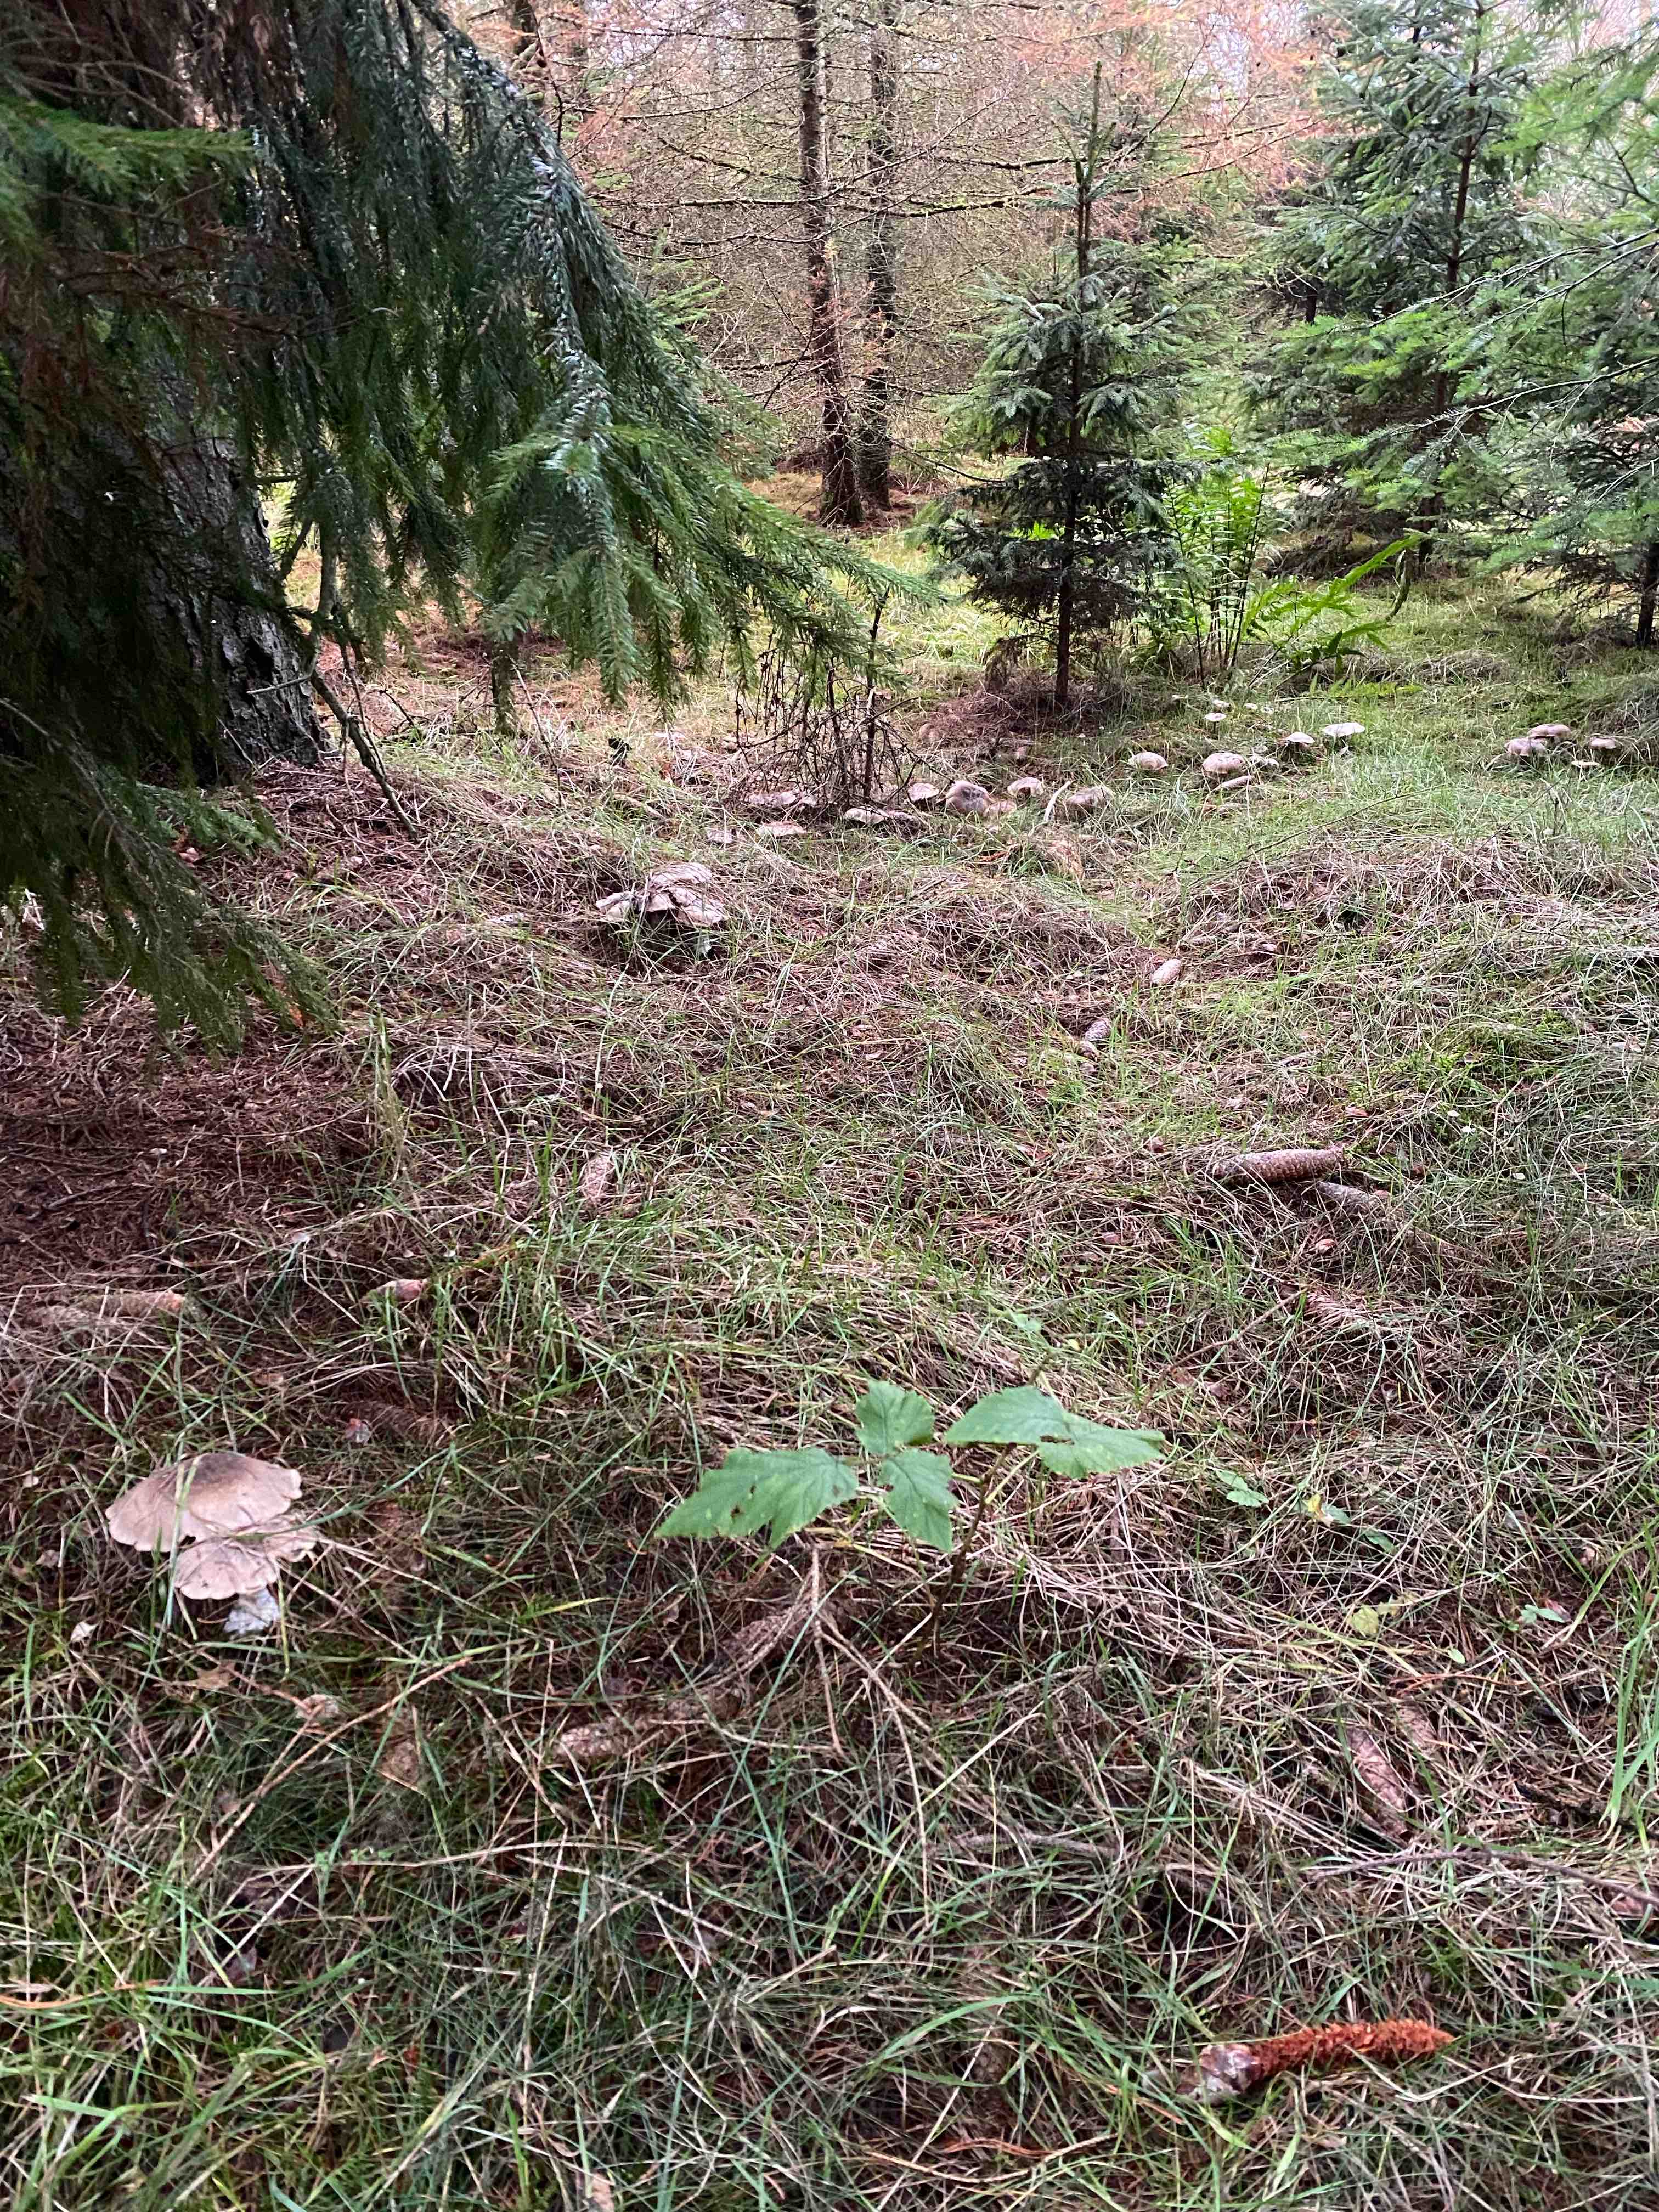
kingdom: Fungi
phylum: Basidiomycota
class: Agaricomycetes
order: Agaricales
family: Tricholomataceae
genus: Clitocybe
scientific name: Clitocybe nebularis
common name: tåge-tragthat
